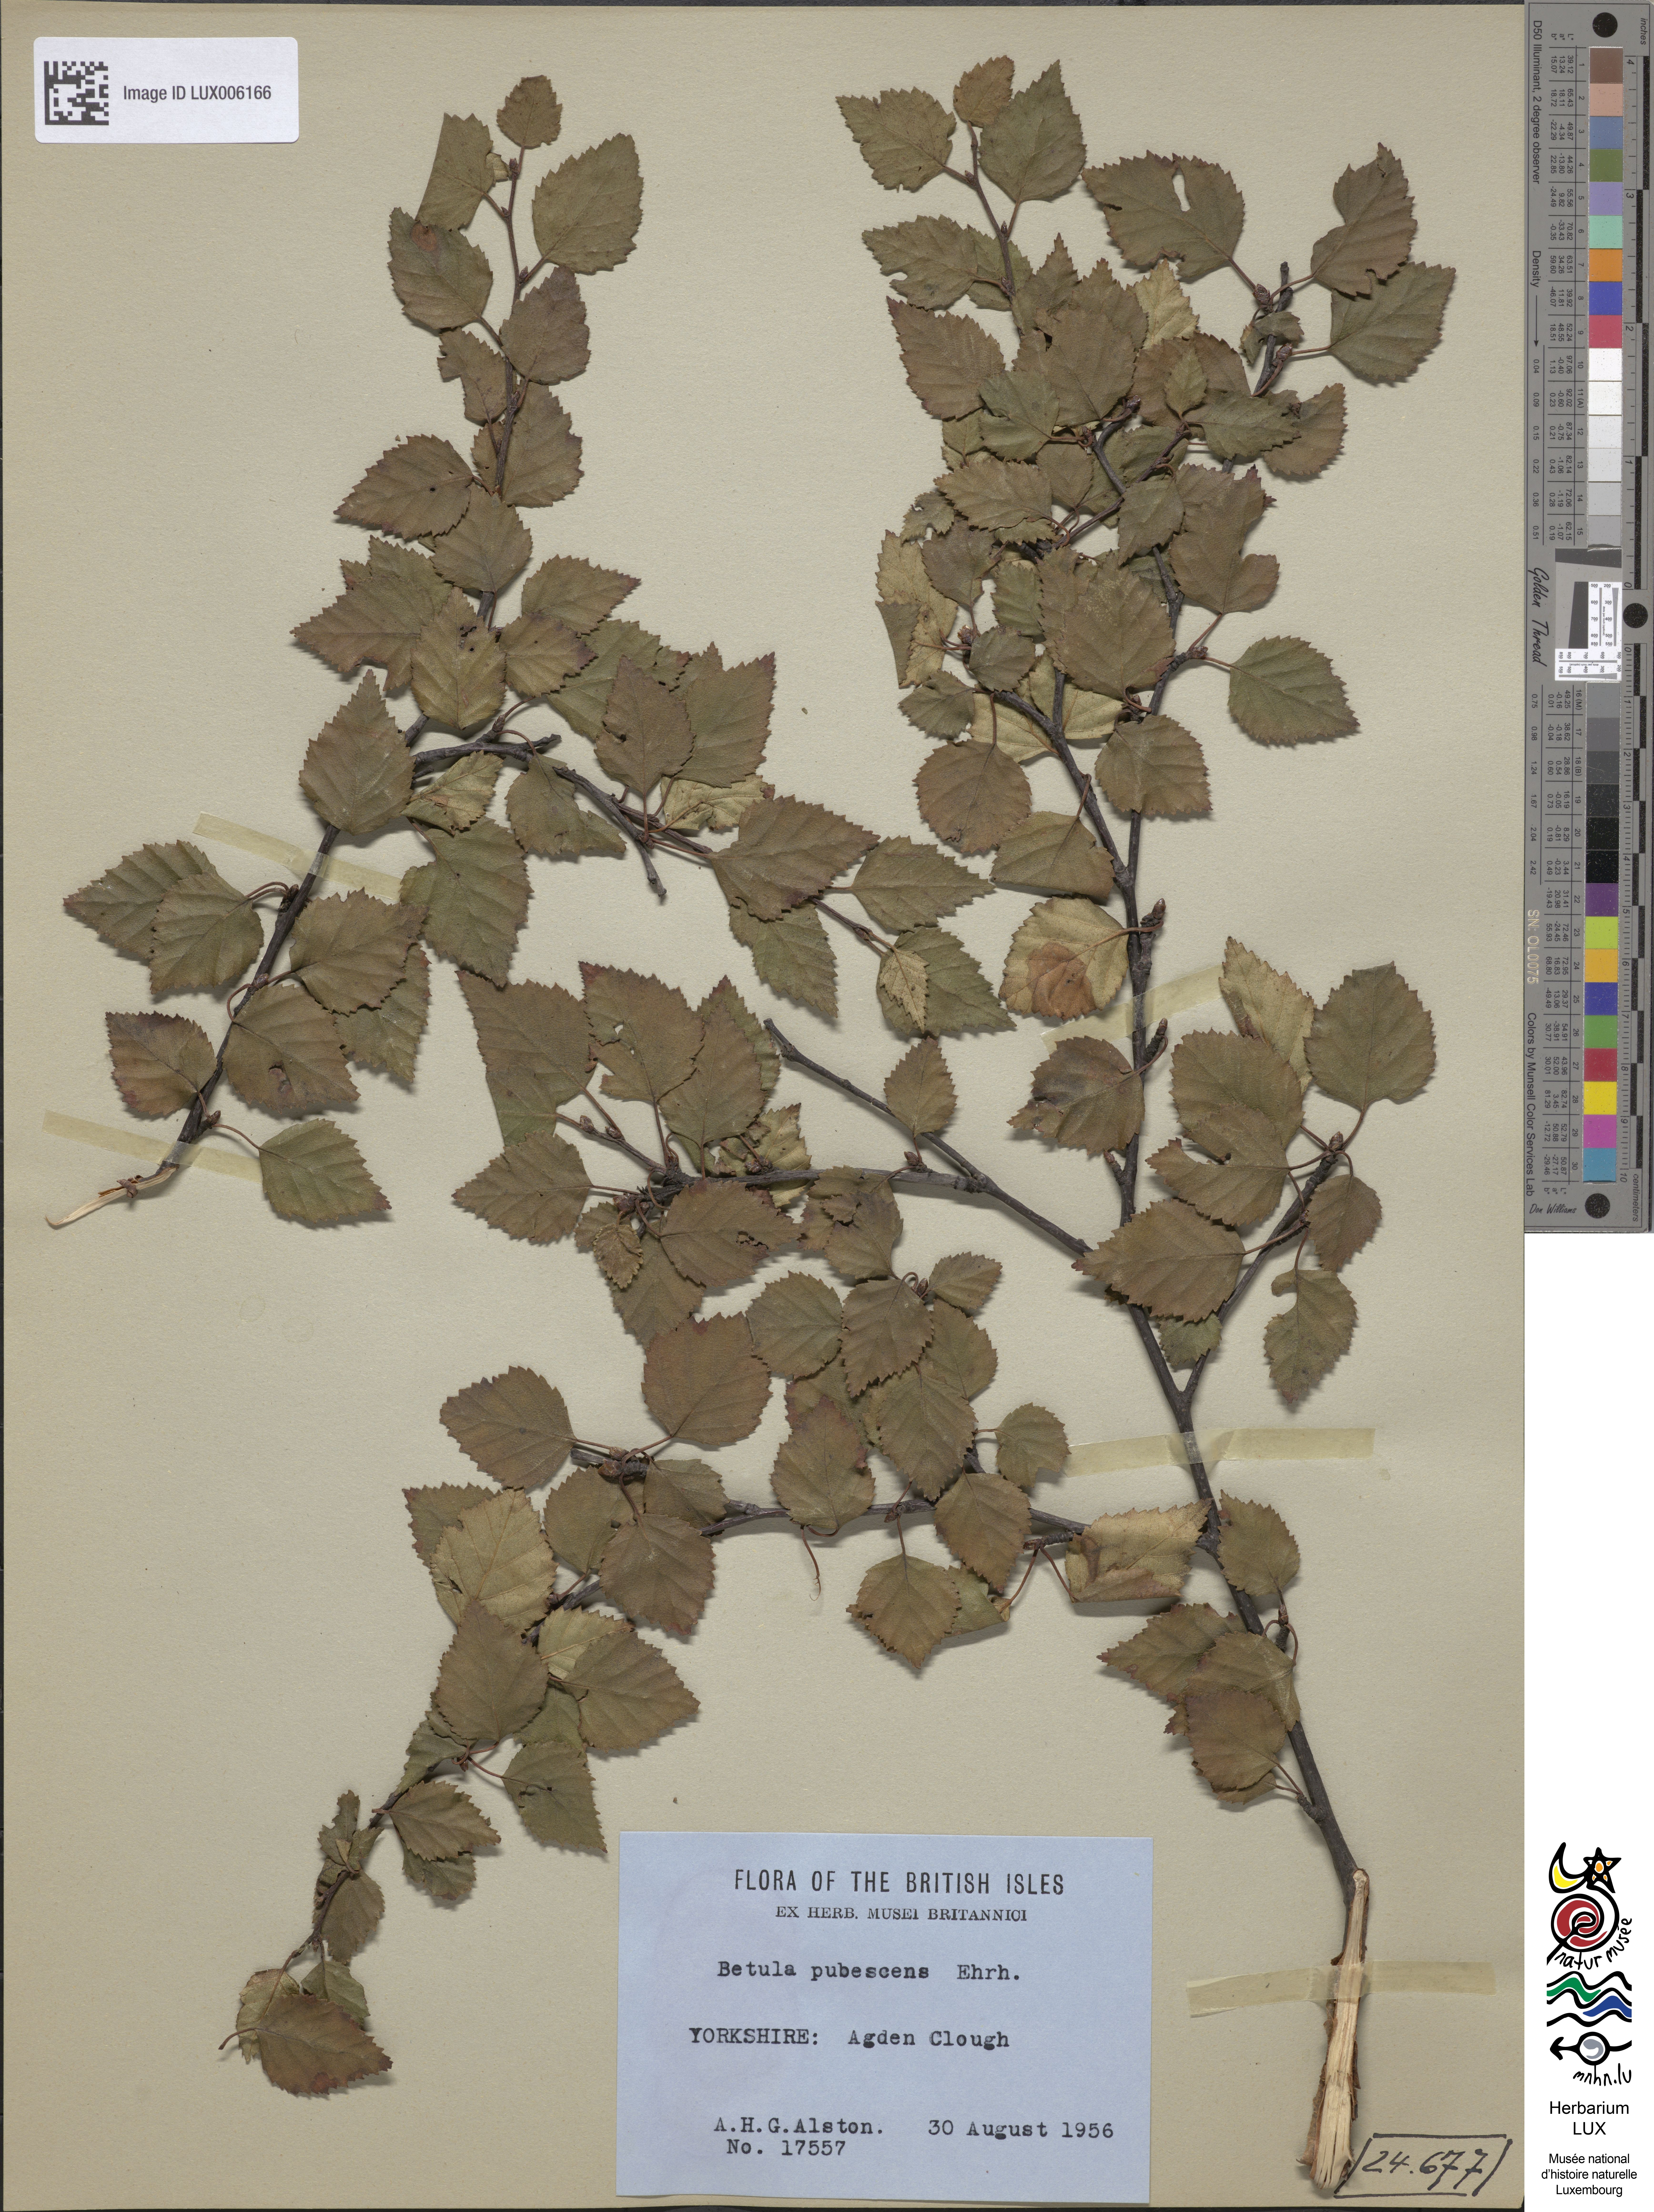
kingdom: Plantae
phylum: Tracheophyta
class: Magnoliopsida
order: Fagales
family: Betulaceae
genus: Betula
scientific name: Betula pubescens
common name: Downy birch
